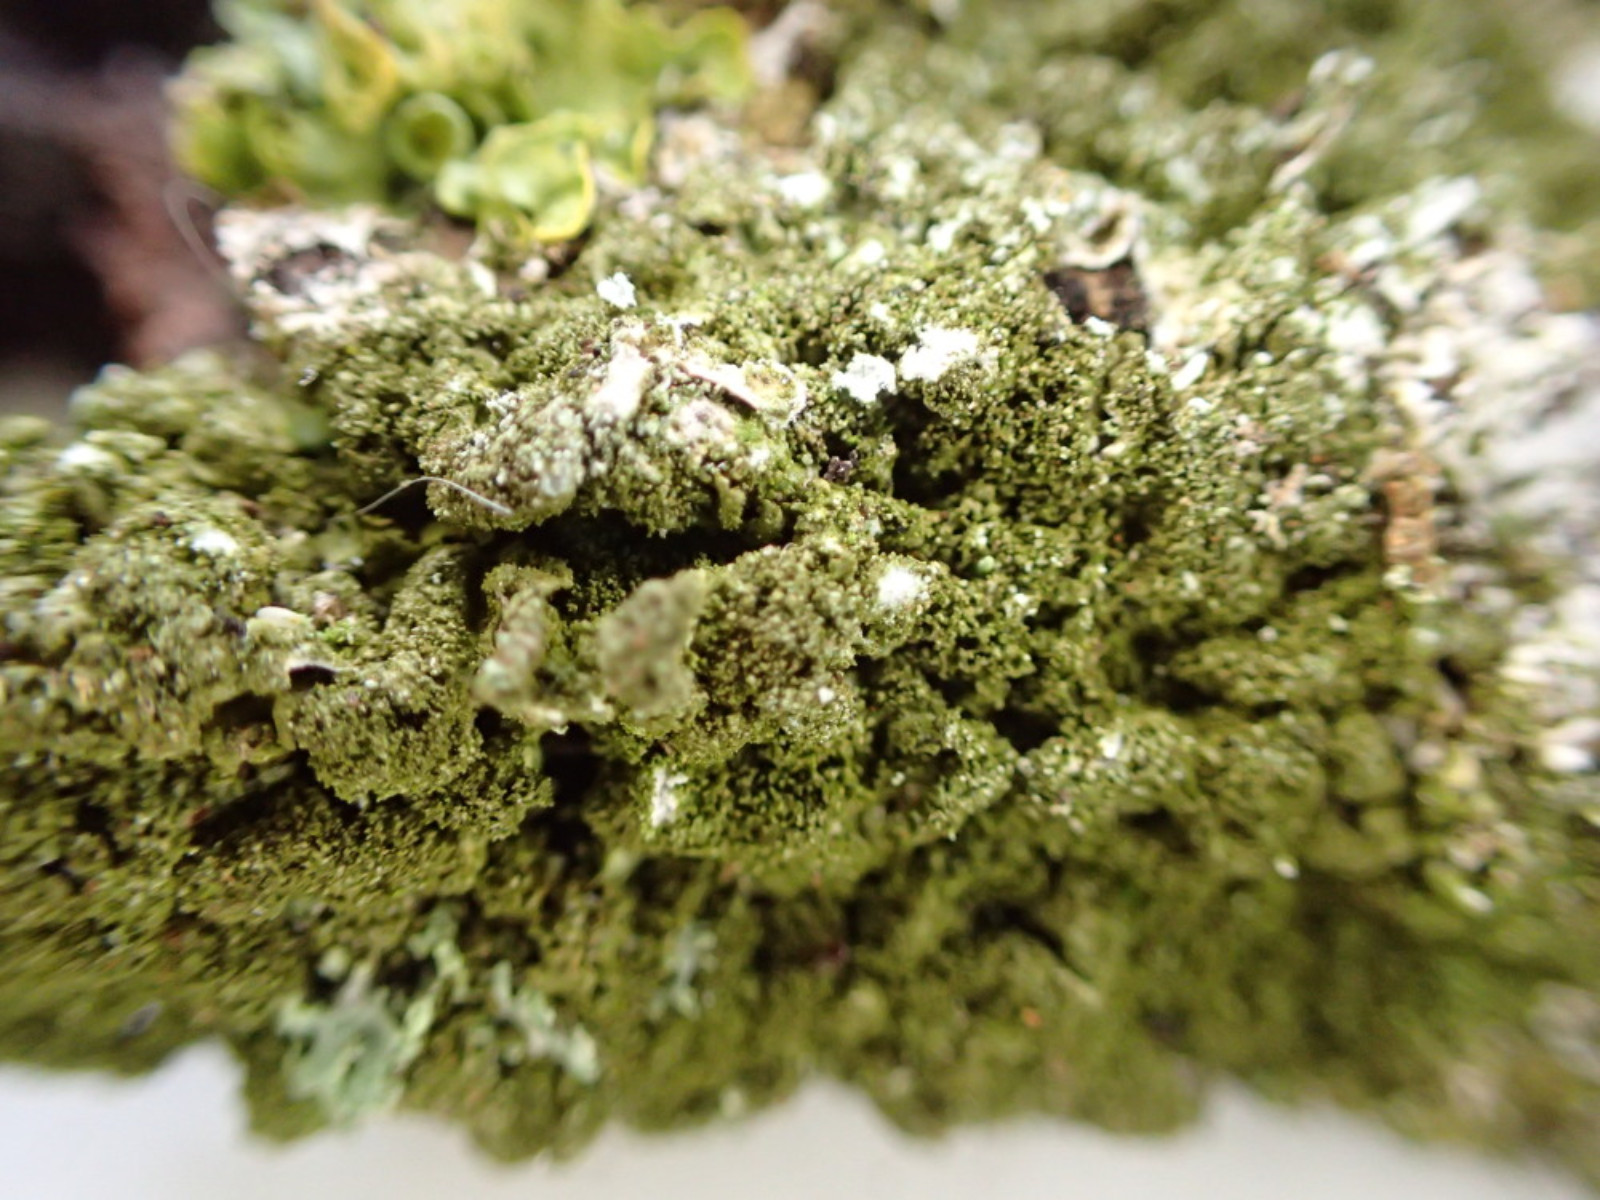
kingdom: Fungi
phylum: Ascomycota
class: Lecanoromycetes
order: Lecanorales
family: Parmeliaceae
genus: Melanelixia
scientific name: Melanelixia subaurifera
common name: guldpudret skållav
